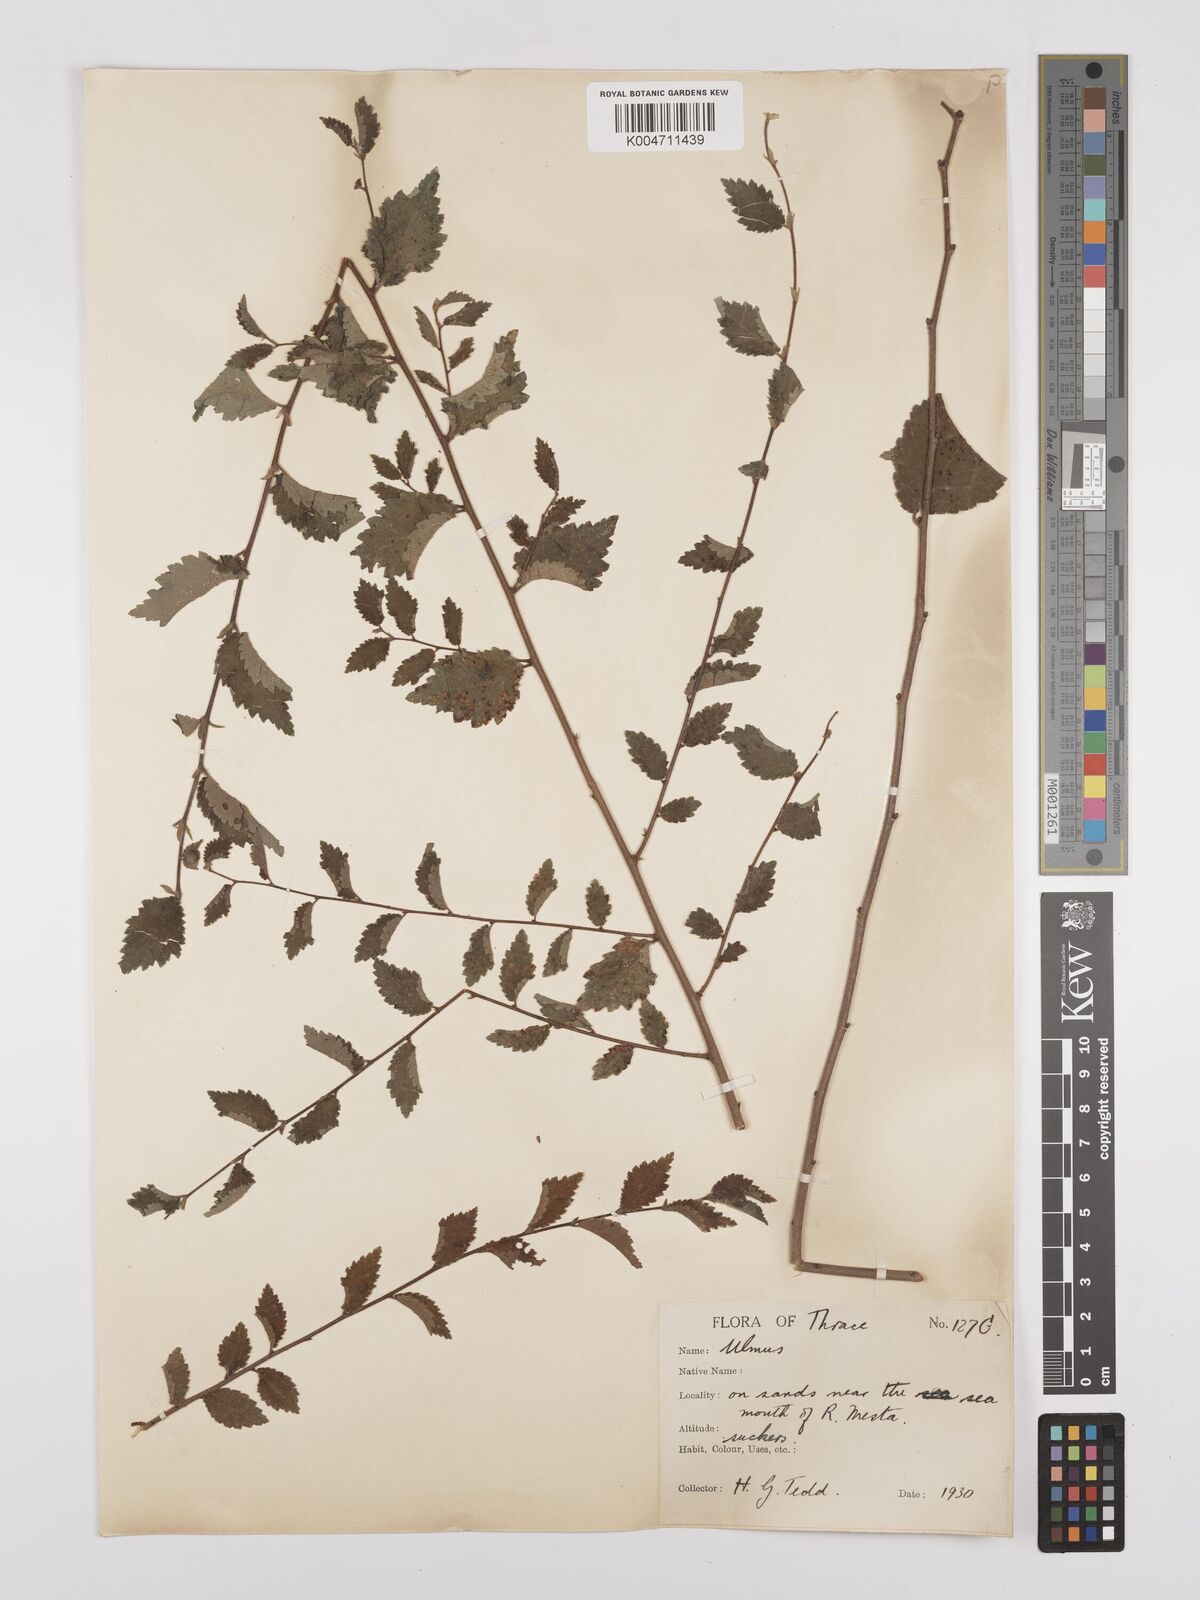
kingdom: Plantae
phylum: Tracheophyta
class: Magnoliopsida
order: Rosales
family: Ulmaceae
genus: Ulmus
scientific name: Ulmus
